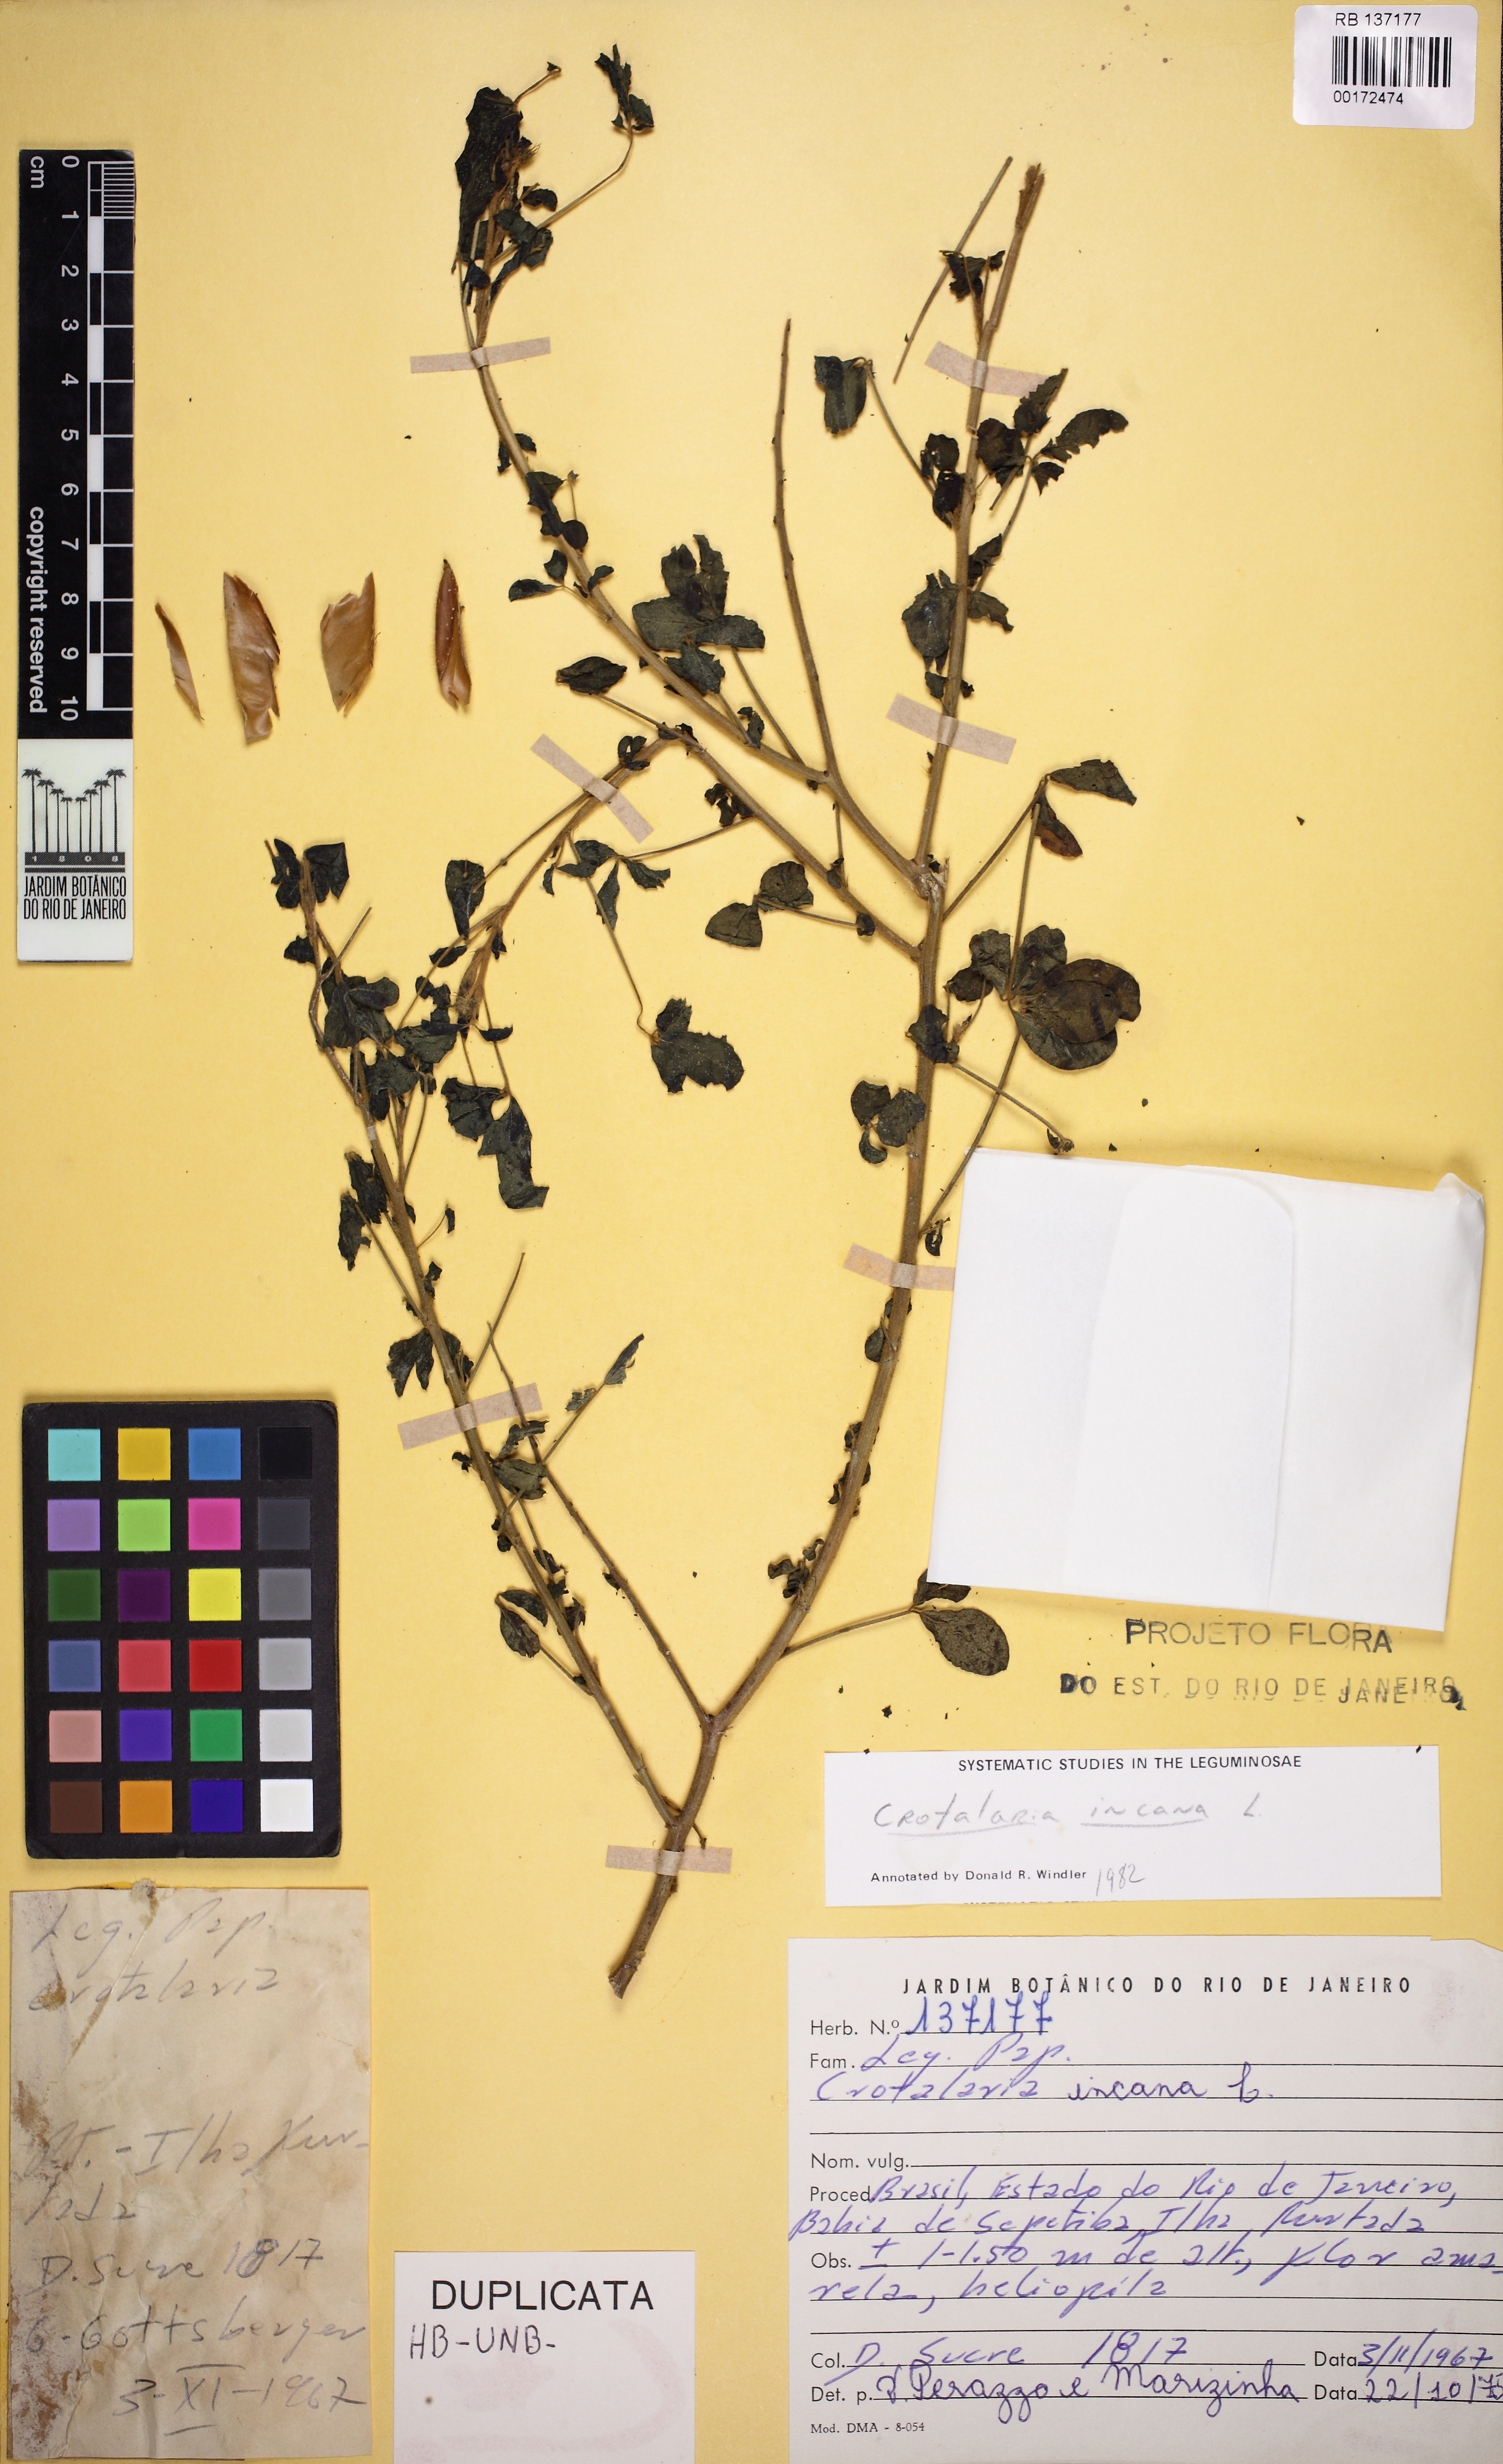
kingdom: Plantae
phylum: Tracheophyta
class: Magnoliopsida
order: Fabales
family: Fabaceae
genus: Crotalaria
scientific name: Crotalaria incana
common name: Shakeshake
